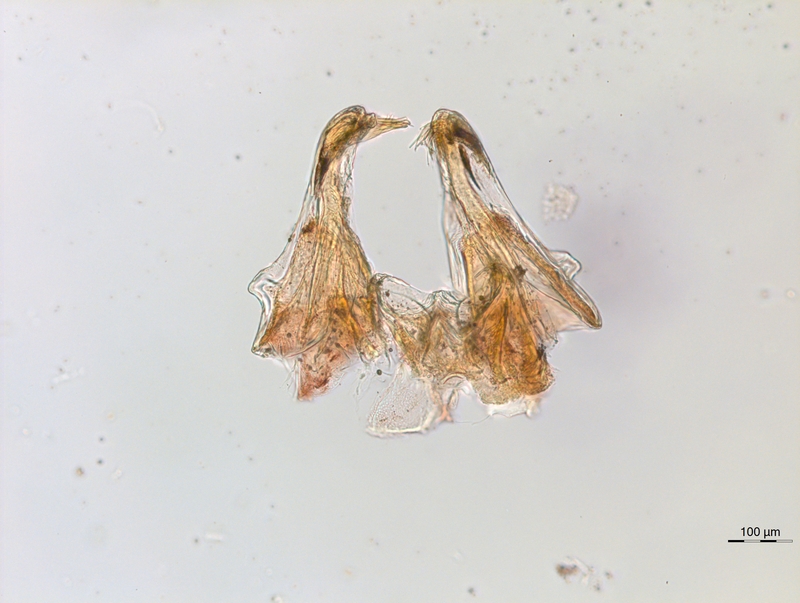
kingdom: Animalia
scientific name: Animalia
